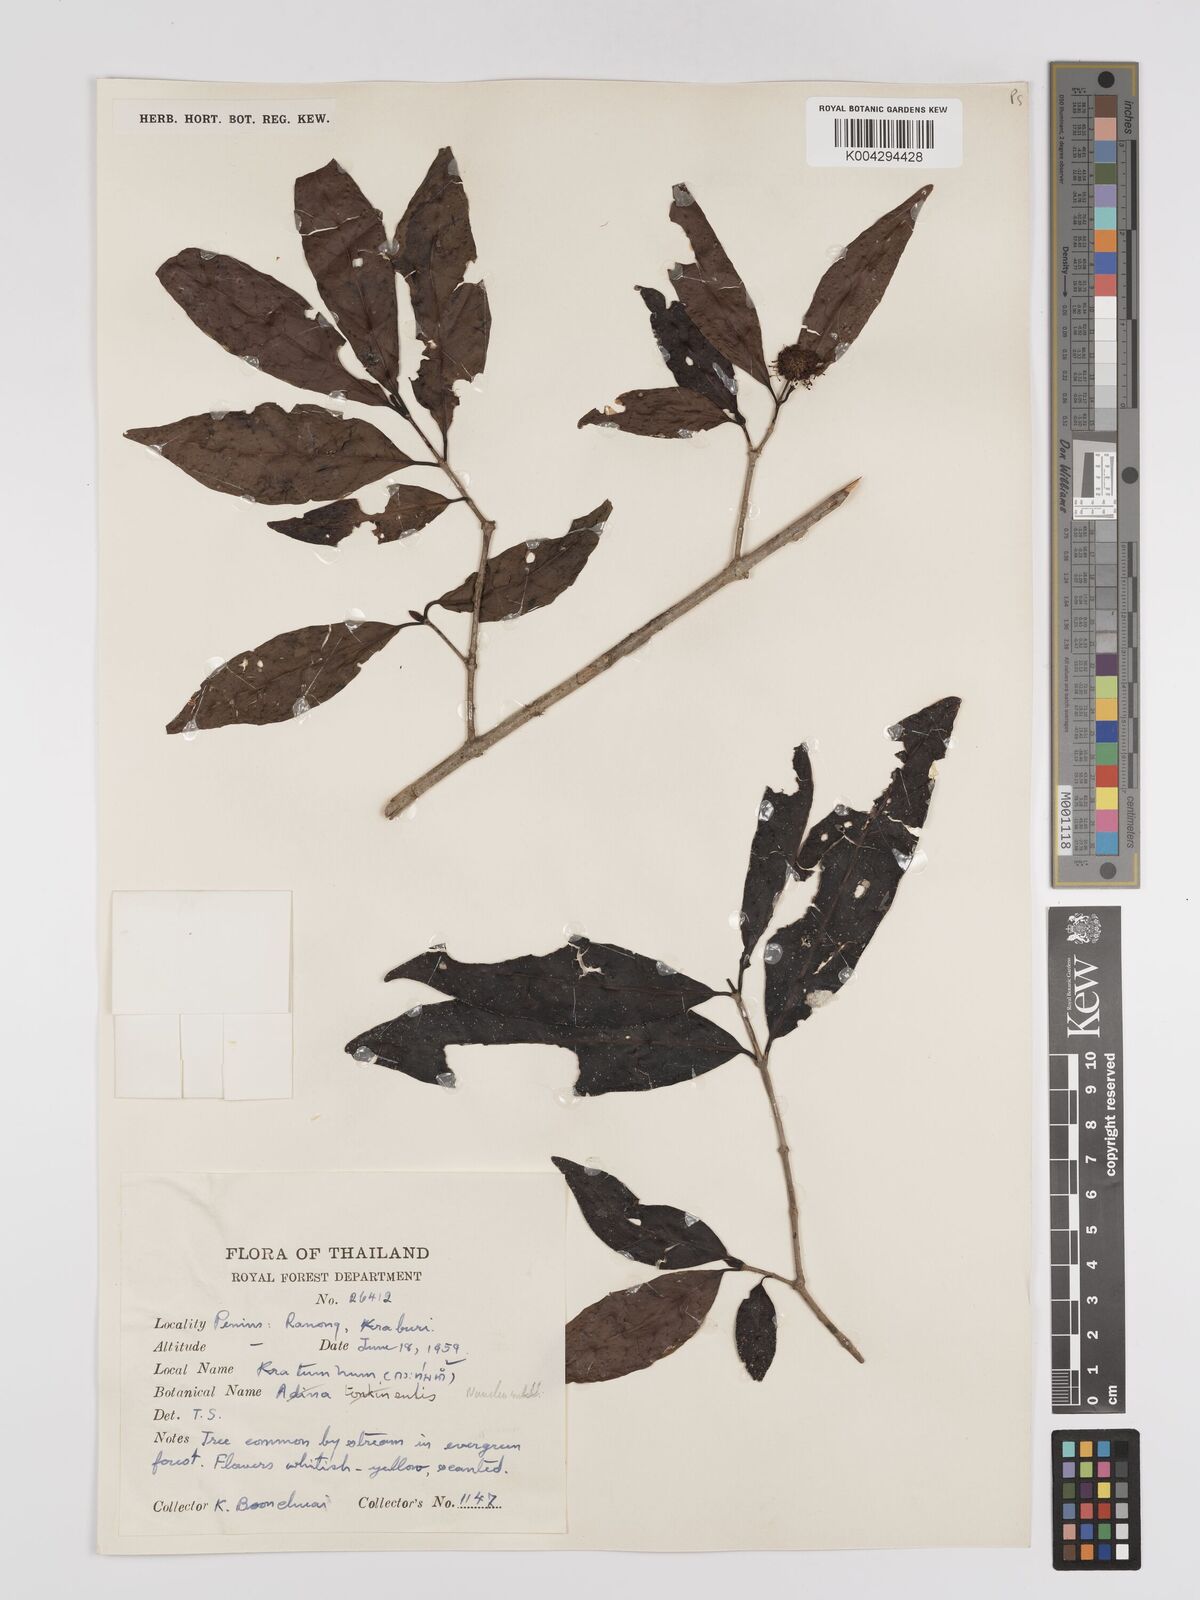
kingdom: Plantae
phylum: Tracheophyta
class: Magnoliopsida
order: Gentianales
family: Rubiaceae
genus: Nauclea
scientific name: Nauclea subdita
